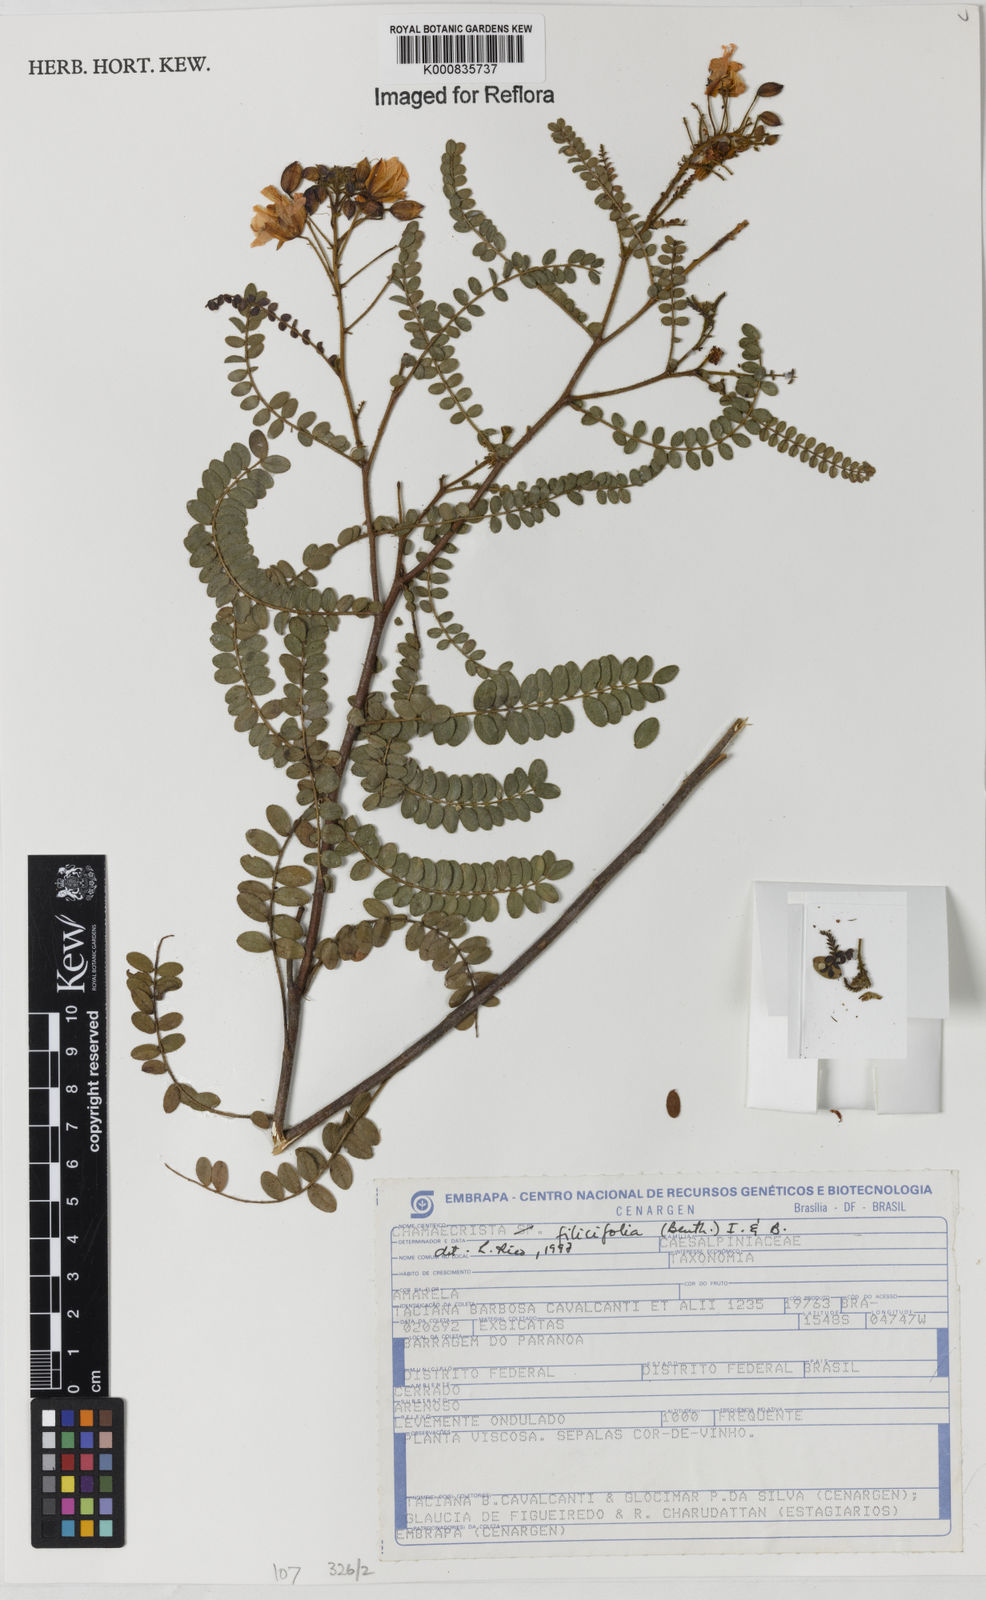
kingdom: Plantae
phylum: Tracheophyta
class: Magnoliopsida
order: Fabales
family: Fabaceae
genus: Chamaecrista
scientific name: Chamaecrista filicifolia
